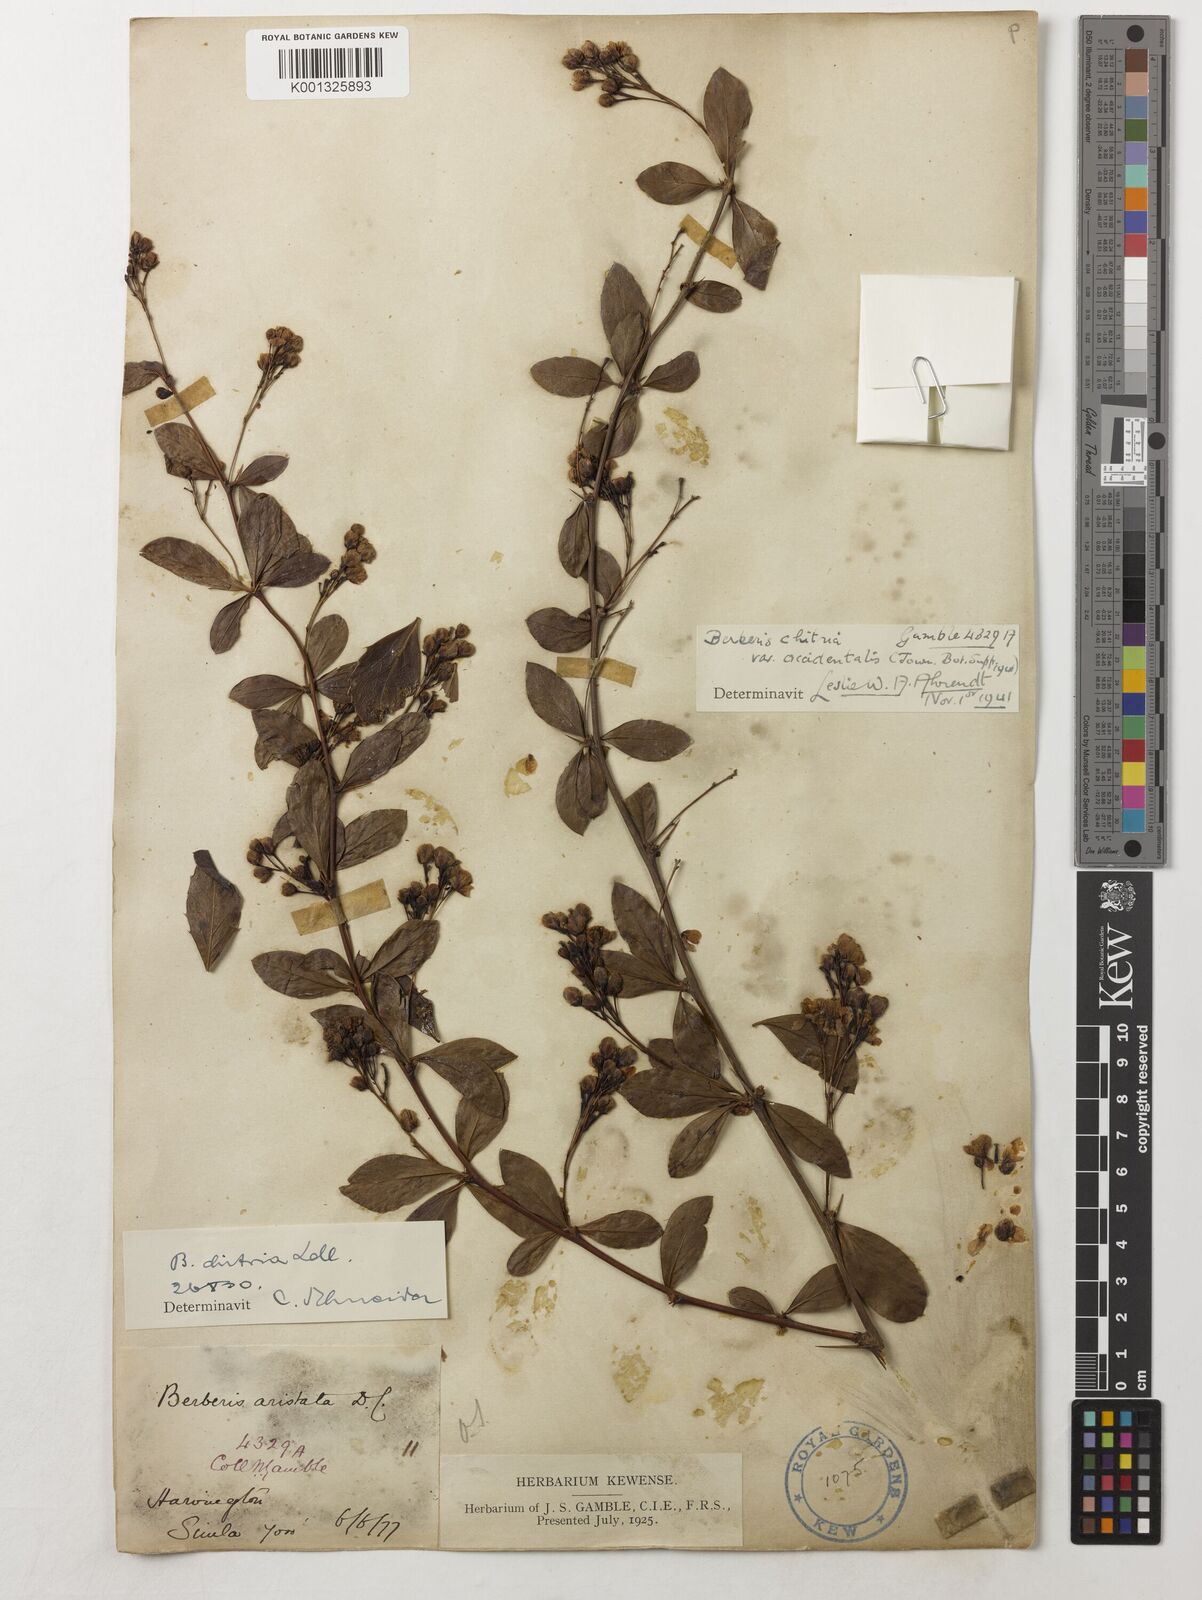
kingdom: Plantae
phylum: Tracheophyta
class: Magnoliopsida
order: Ranunculales
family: Berberidaceae
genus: Berberis
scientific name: Berberis aristata
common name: Indian barberry
